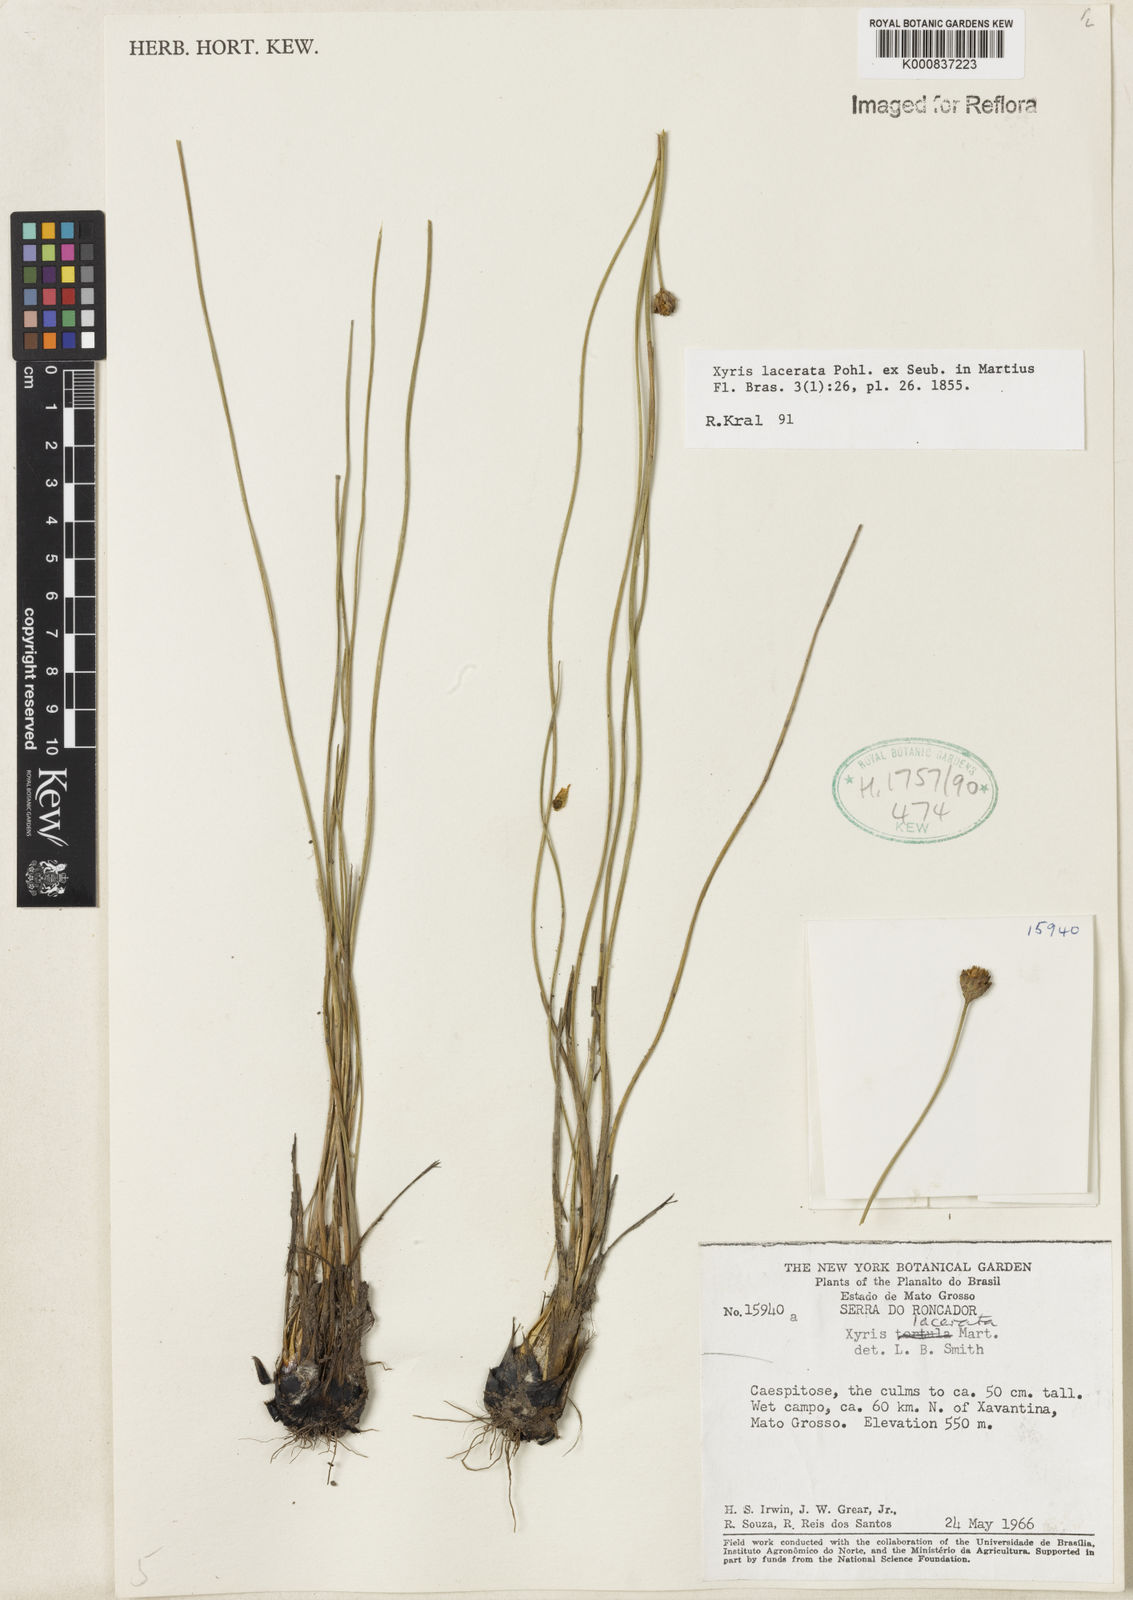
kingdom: Plantae
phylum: Tracheophyta
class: Liliopsida
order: Poales
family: Xyridaceae
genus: Xyris
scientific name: Xyris lacerata
